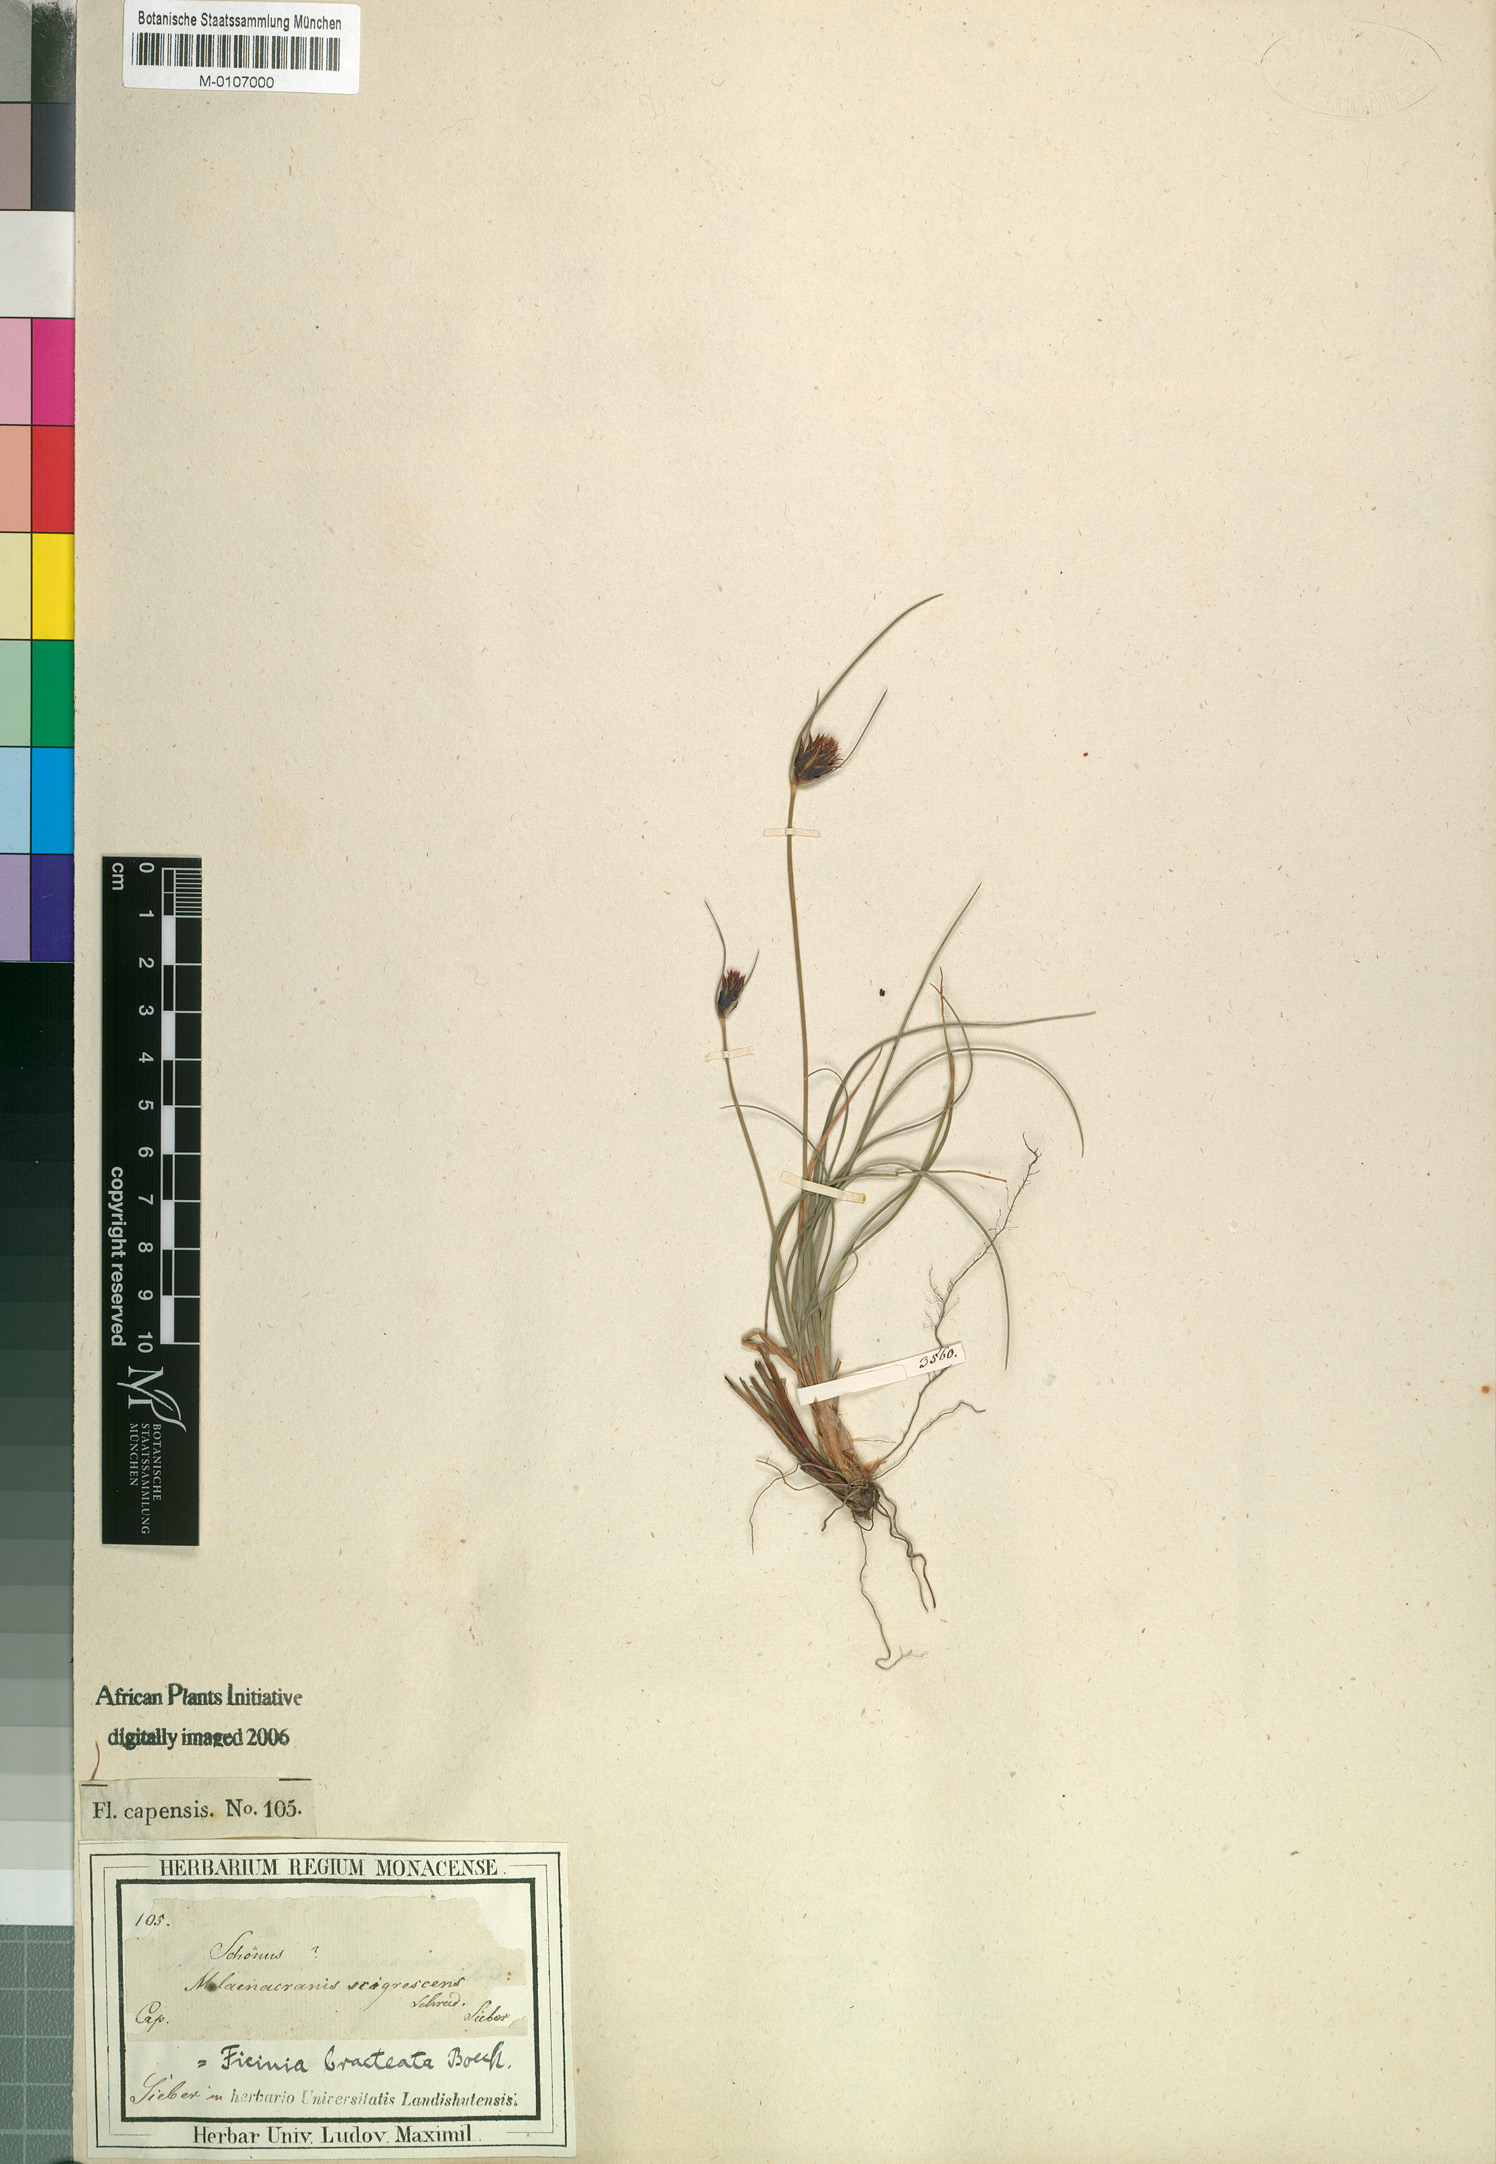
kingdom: Plantae
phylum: Tracheophyta
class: Liliopsida
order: Poales
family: Cyperaceae
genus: Ficinia
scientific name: Ficinia nigrescens
